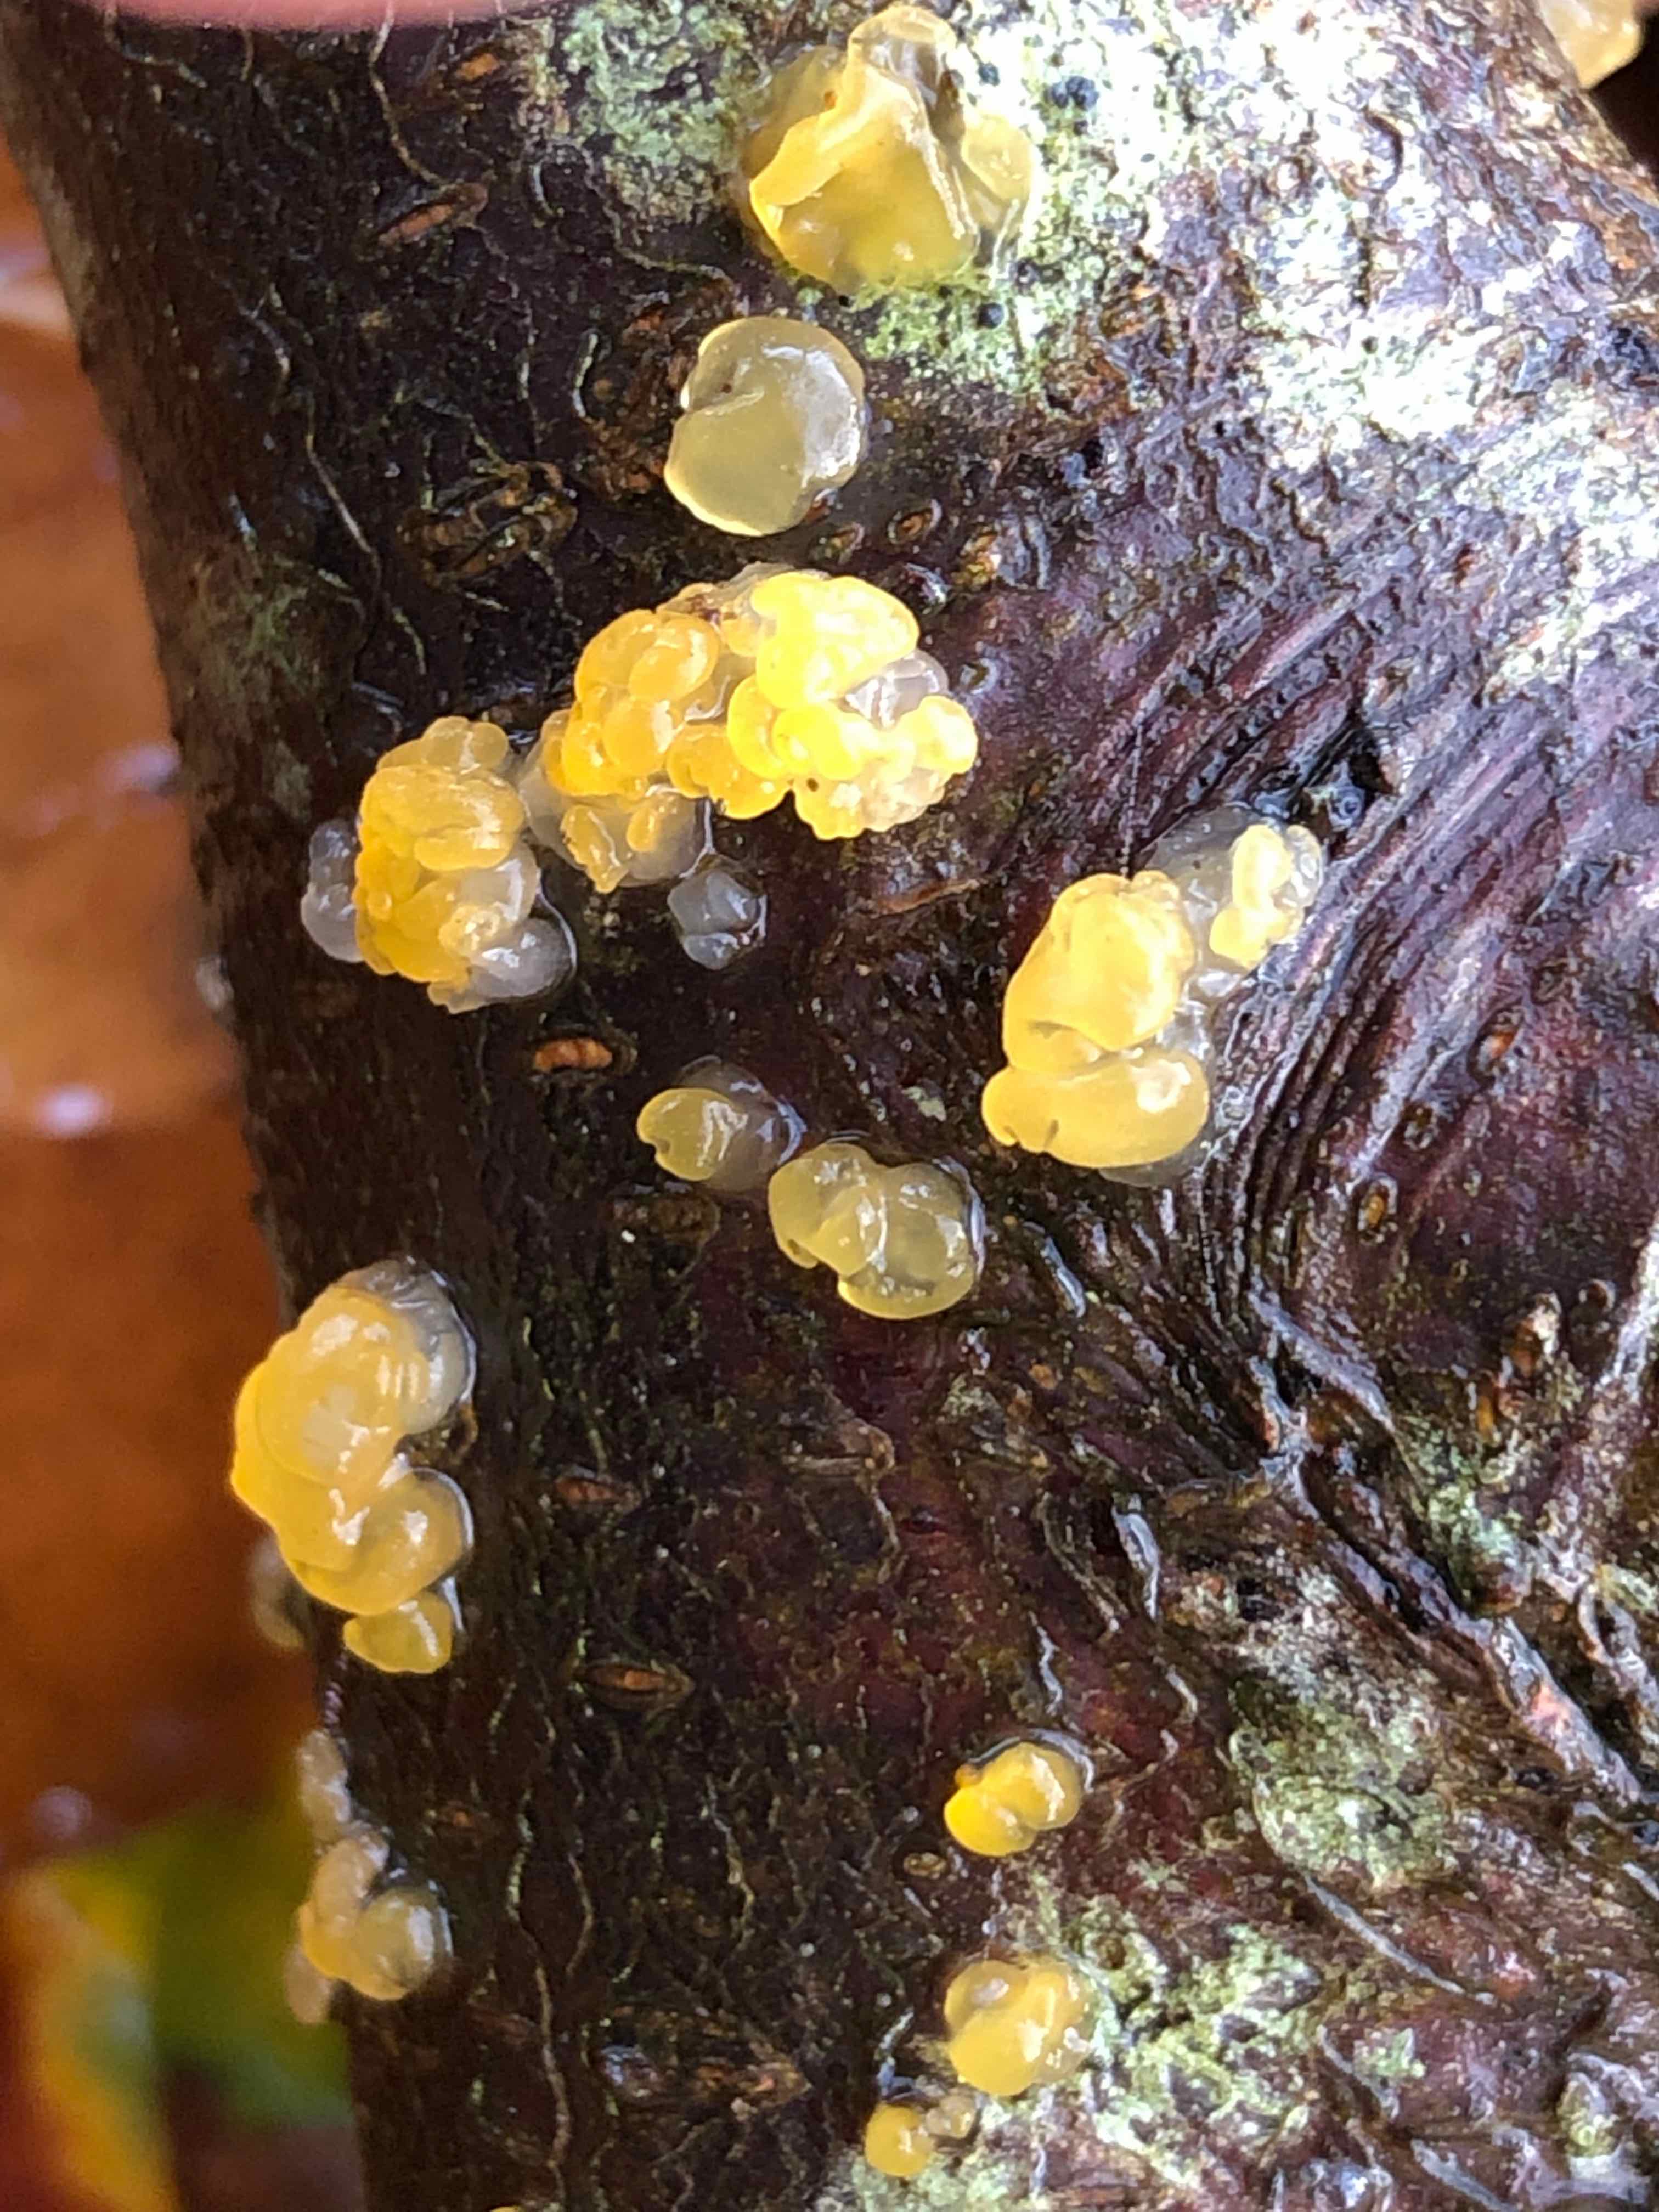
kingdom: Fungi
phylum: Basidiomycota
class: Dacrymycetes
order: Dacrymycetales
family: Dacrymycetaceae
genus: Dacrymyces
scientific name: Dacrymyces lacrymalis
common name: rynket tåresvamp
